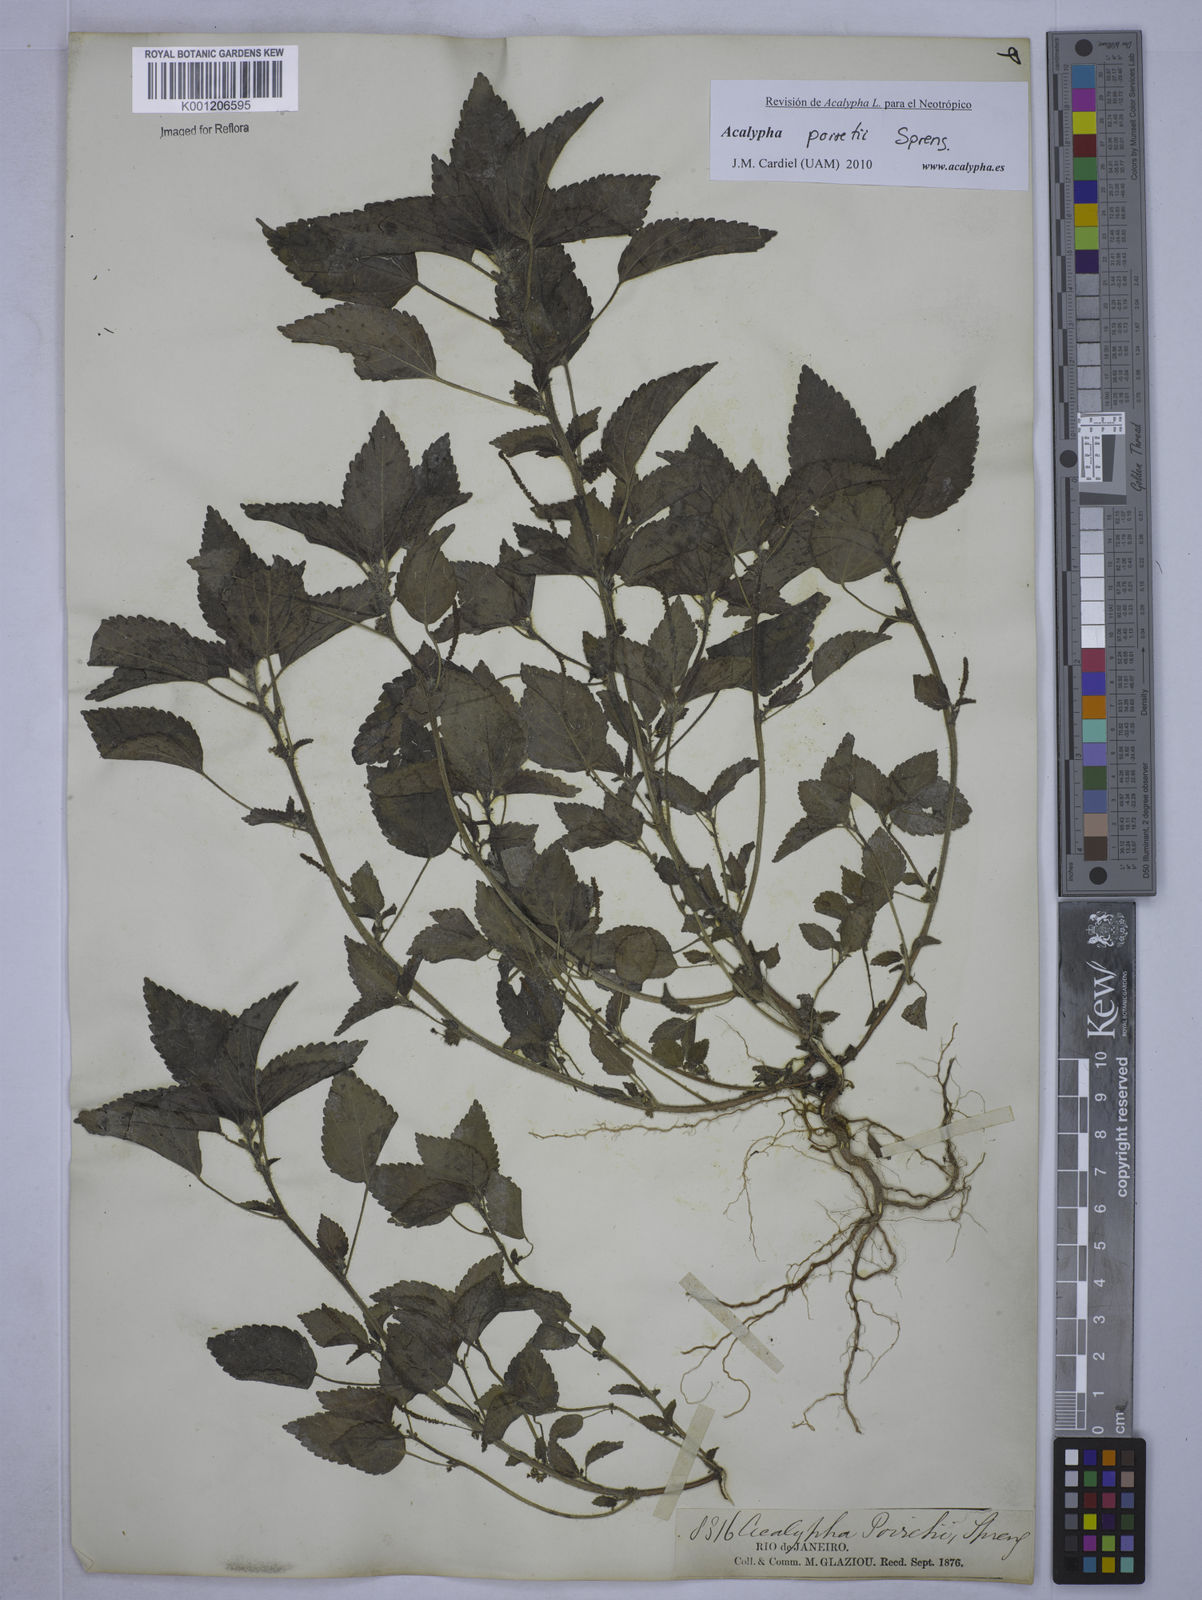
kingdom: Plantae
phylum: Tracheophyta
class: Magnoliopsida
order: Malpighiales
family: Euphorbiaceae
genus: Acalypha
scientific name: Acalypha poiretii
